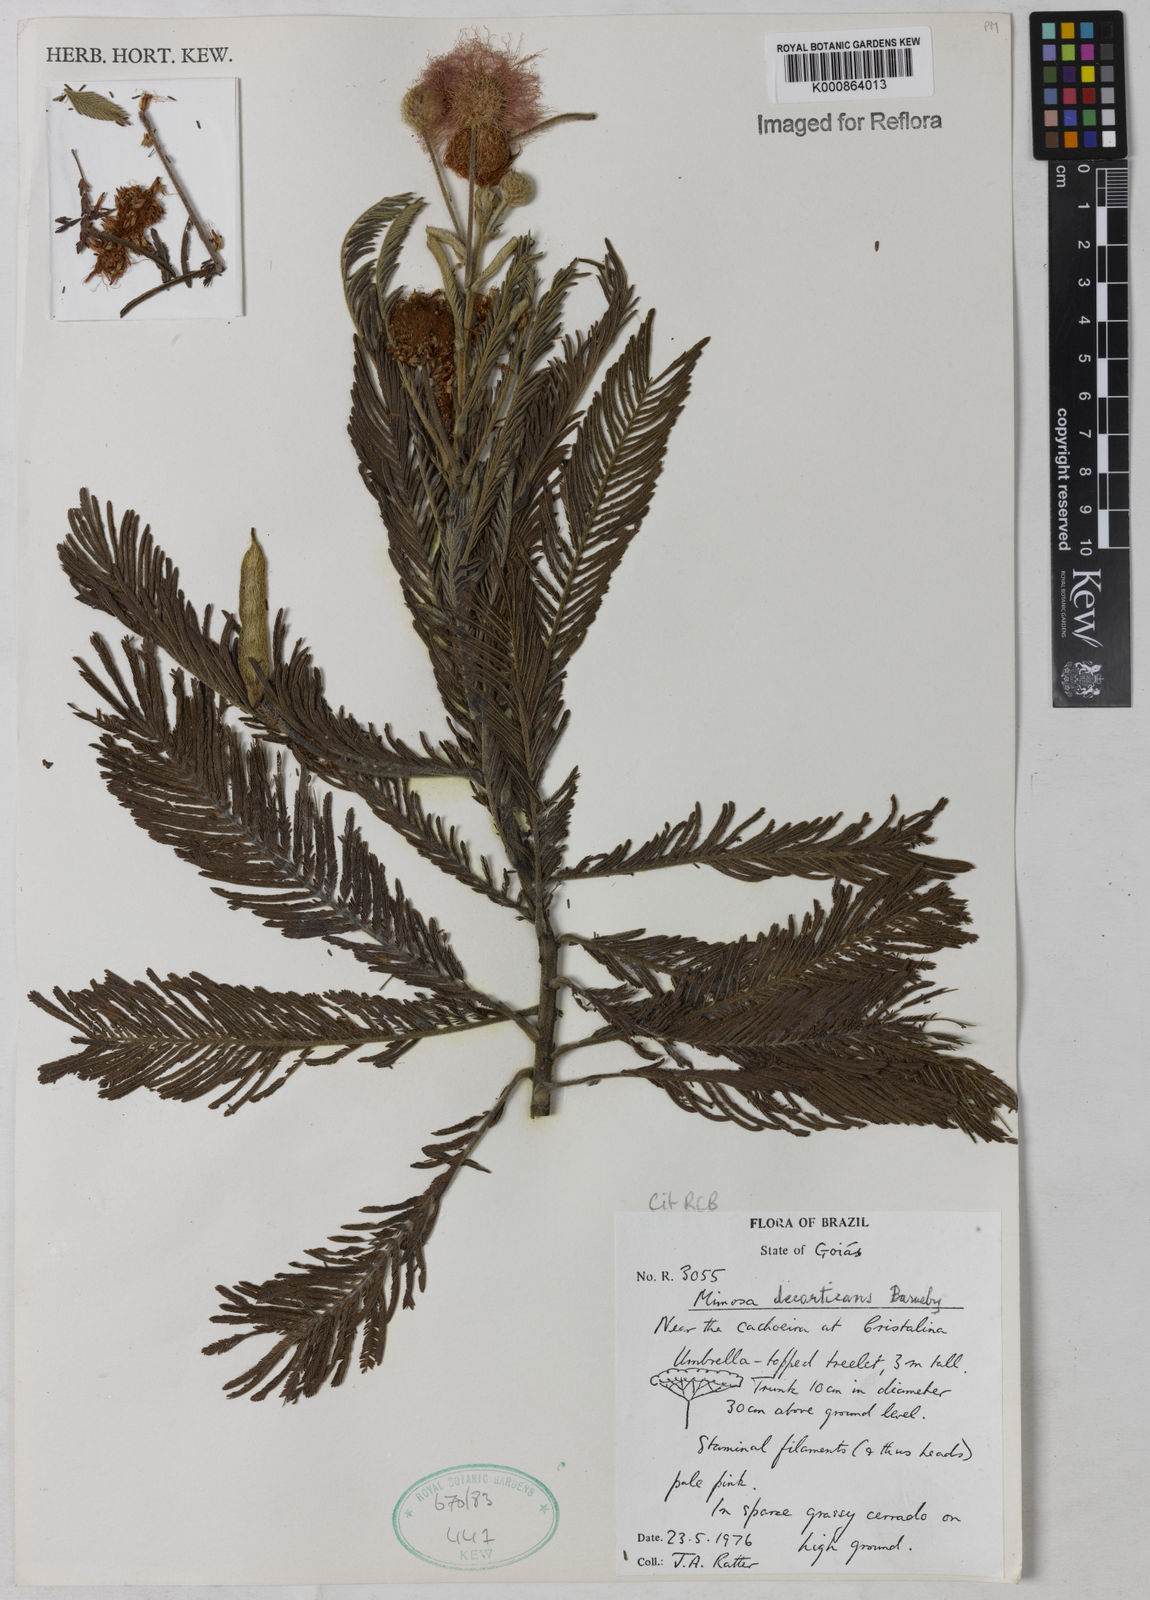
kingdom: Plantae
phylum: Tracheophyta
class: Magnoliopsida
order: Fabales
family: Fabaceae
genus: Mimosa
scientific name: Mimosa decorticans
